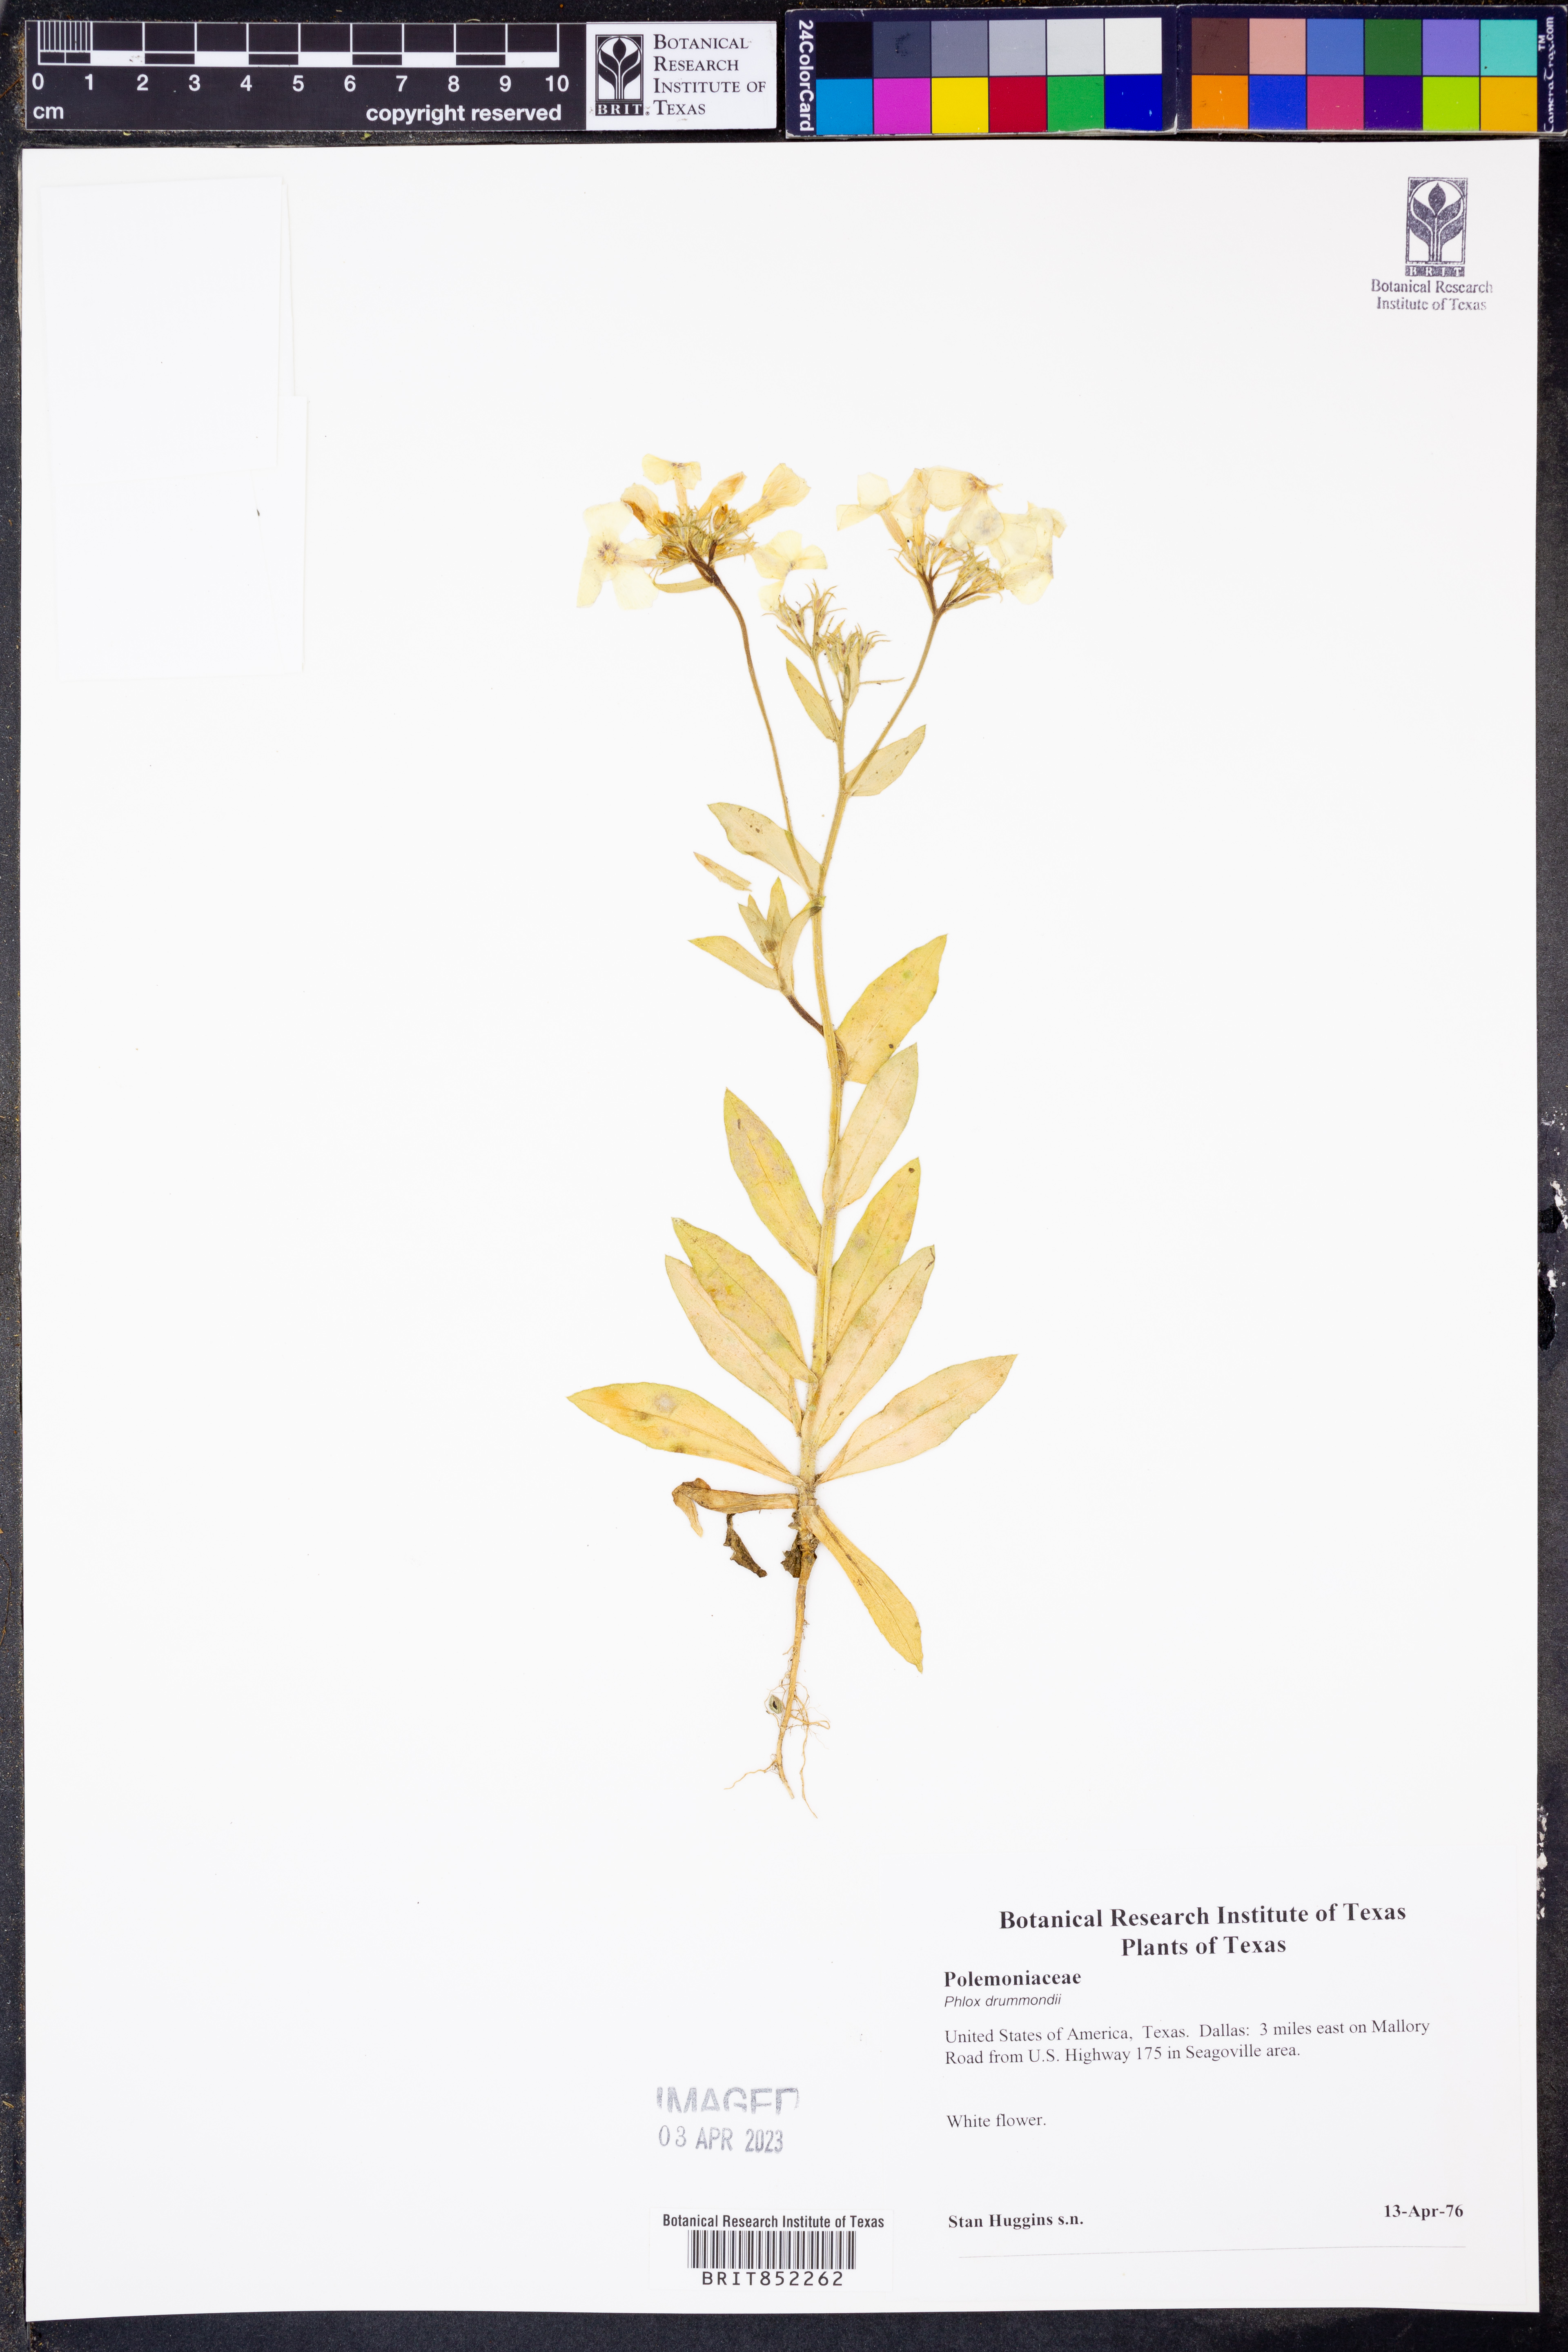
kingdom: Plantae
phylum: Tracheophyta
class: Magnoliopsida
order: Ericales
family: Polemoniaceae
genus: Phlox
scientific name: Phlox drummondii
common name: Drummond's phlox
